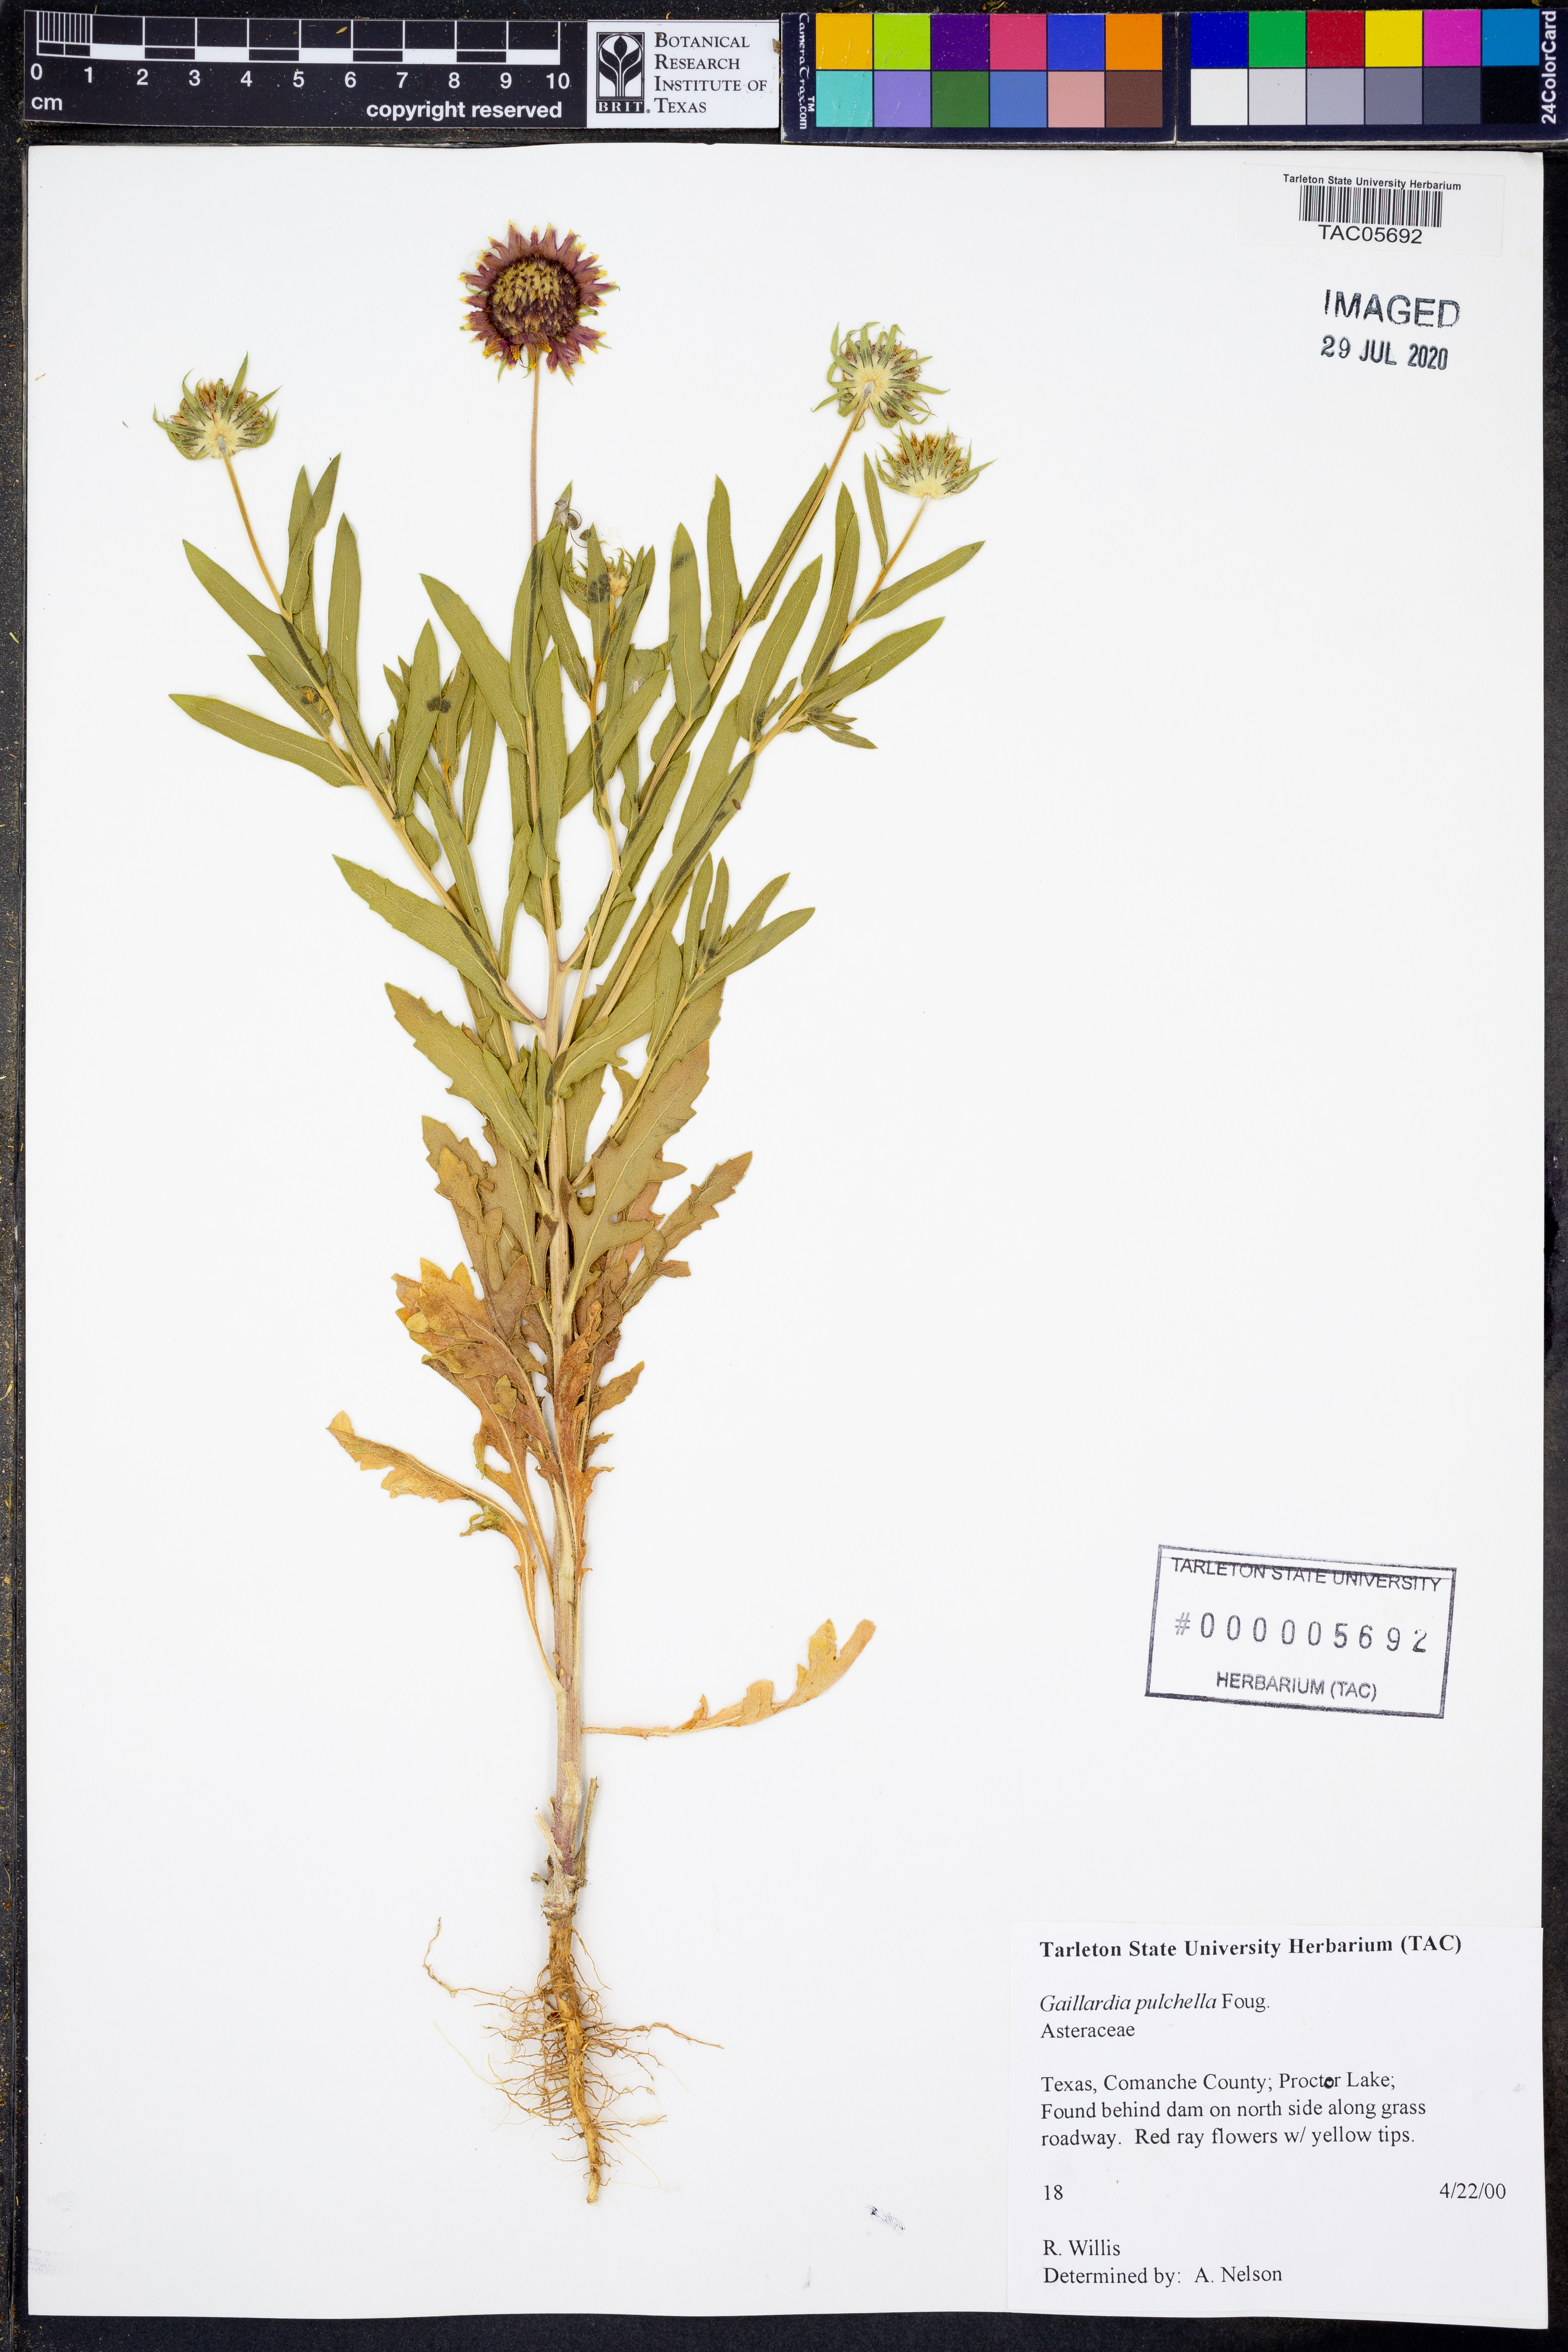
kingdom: Plantae
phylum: Tracheophyta
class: Magnoliopsida
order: Asterales
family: Asteraceae
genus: Gaillardia
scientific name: Gaillardia pulchella
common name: Firewheel
